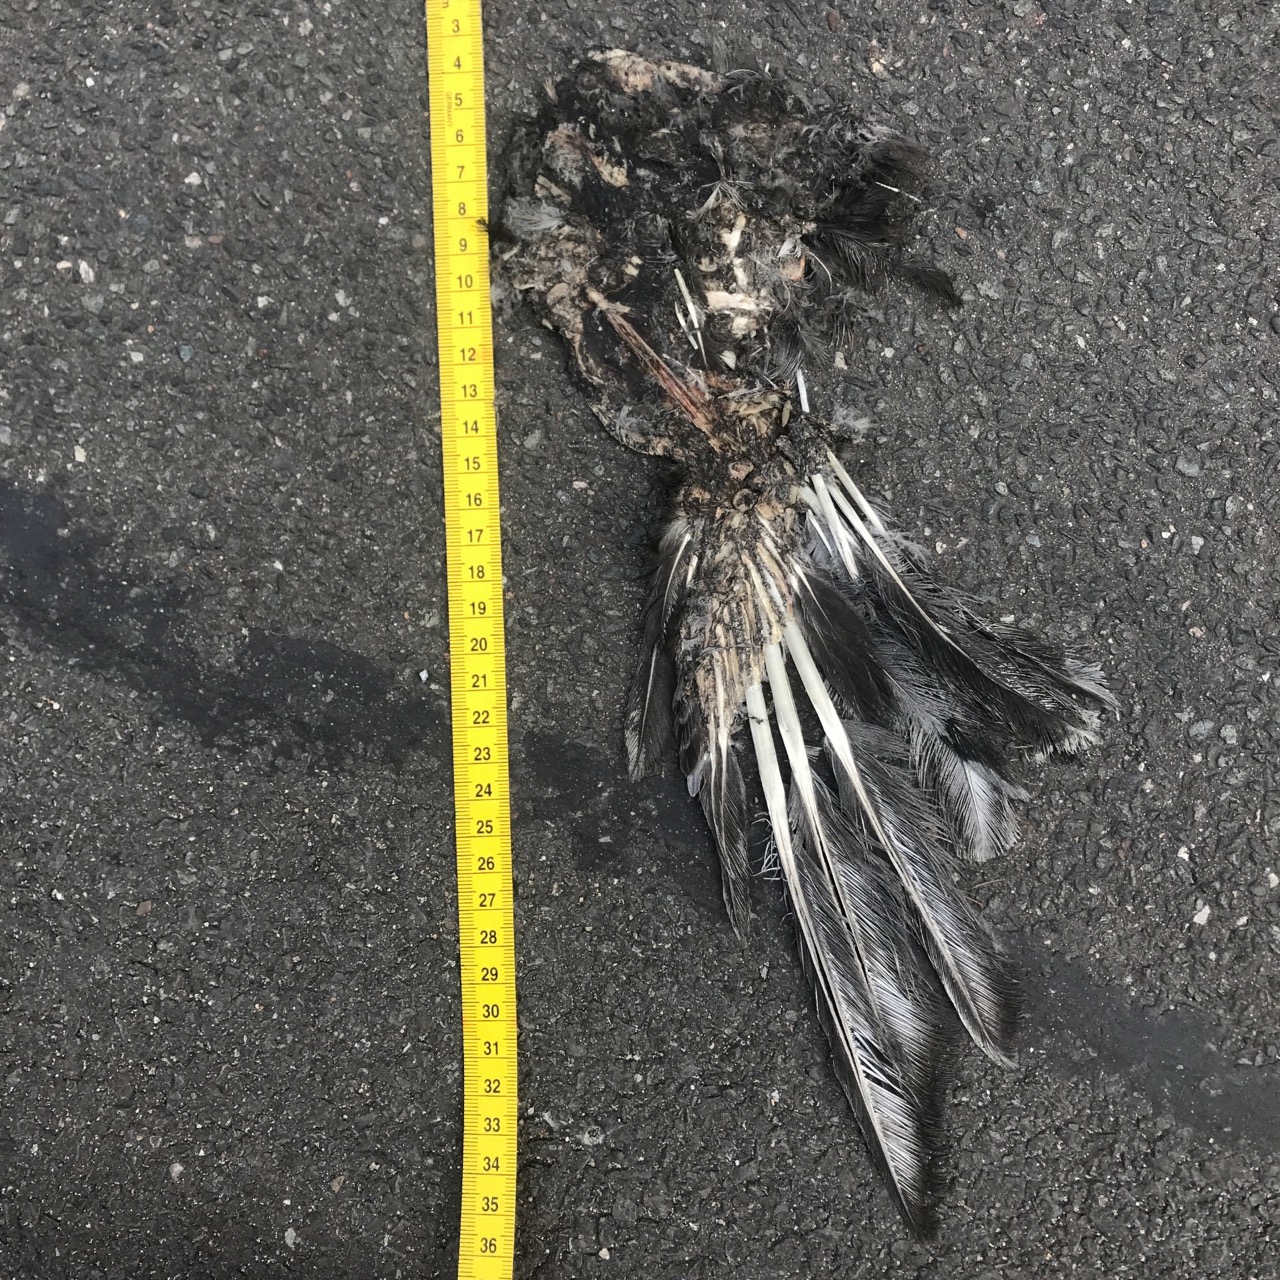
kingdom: Animalia
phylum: Chordata
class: Aves
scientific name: Aves
